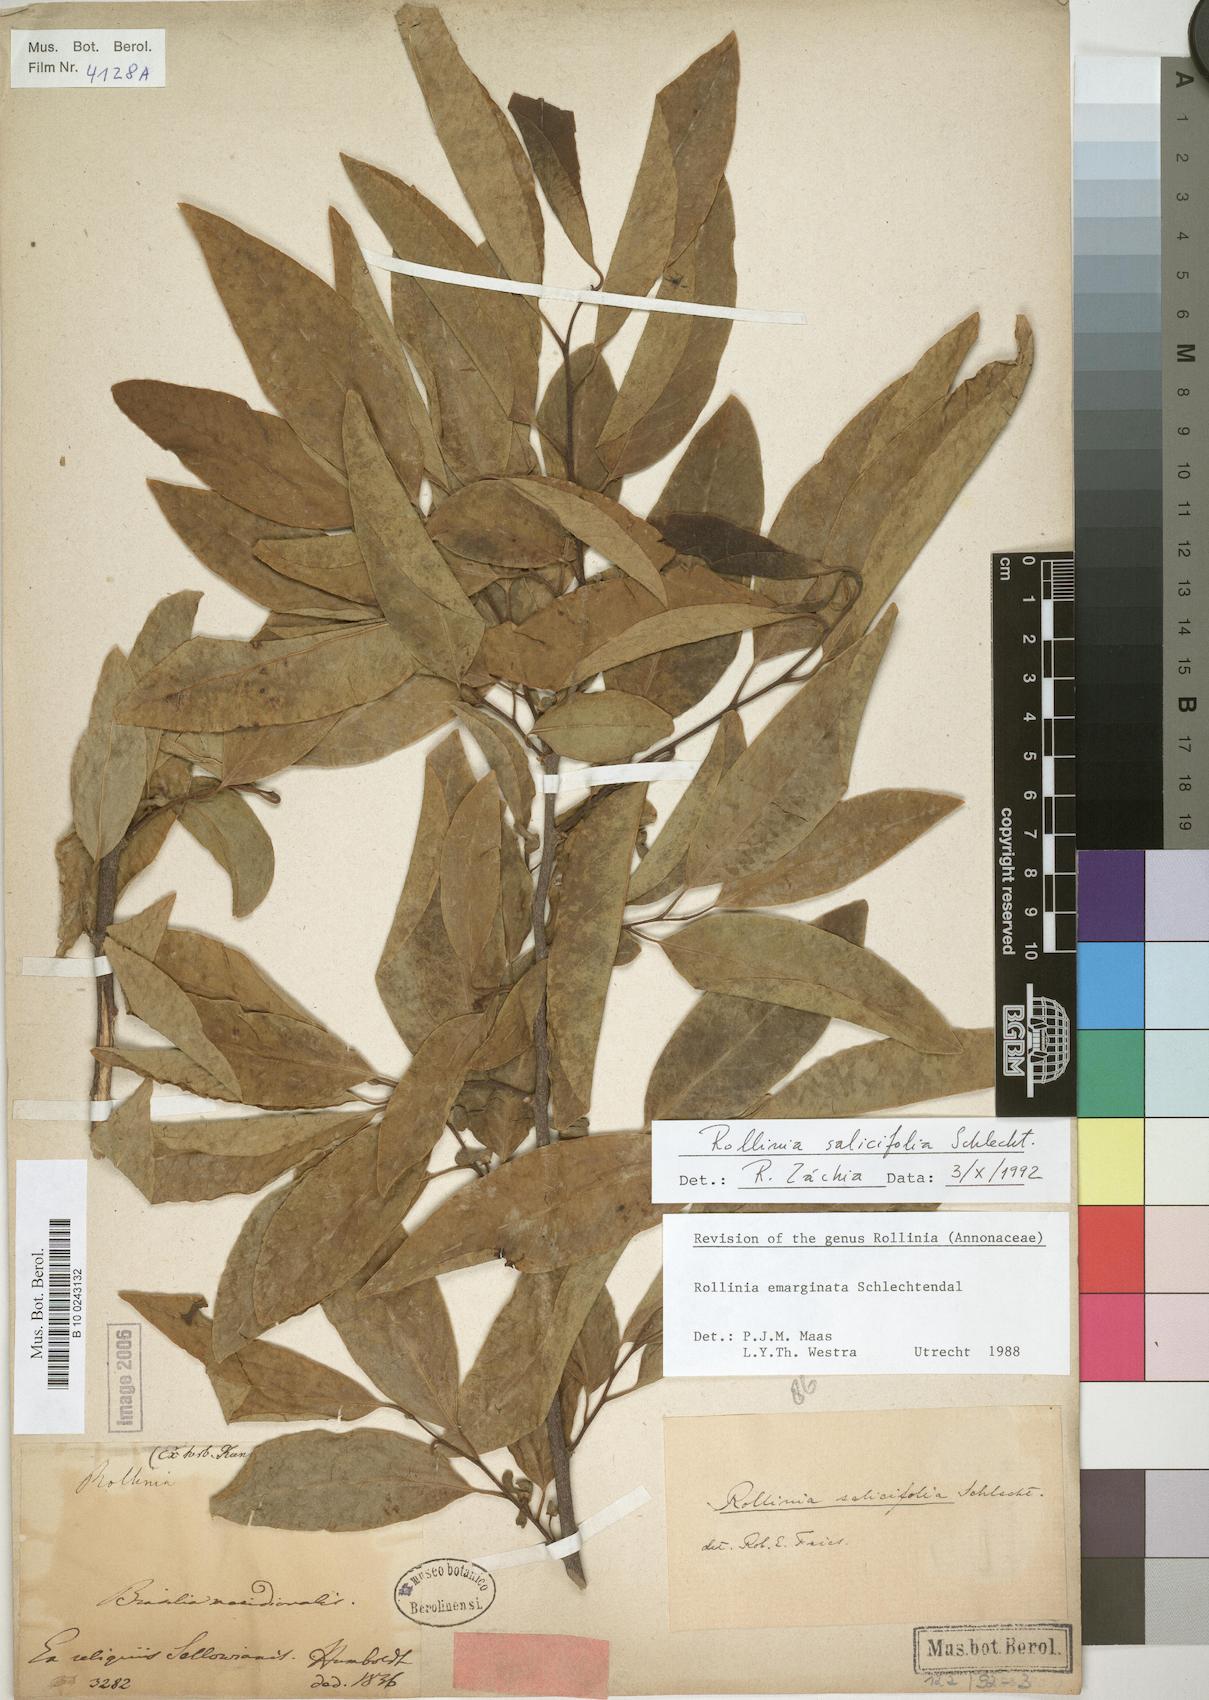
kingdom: Plantae
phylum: Tracheophyta
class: Magnoliopsida
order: Magnoliales
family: Annonaceae
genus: Annona
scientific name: Annona emarginata
